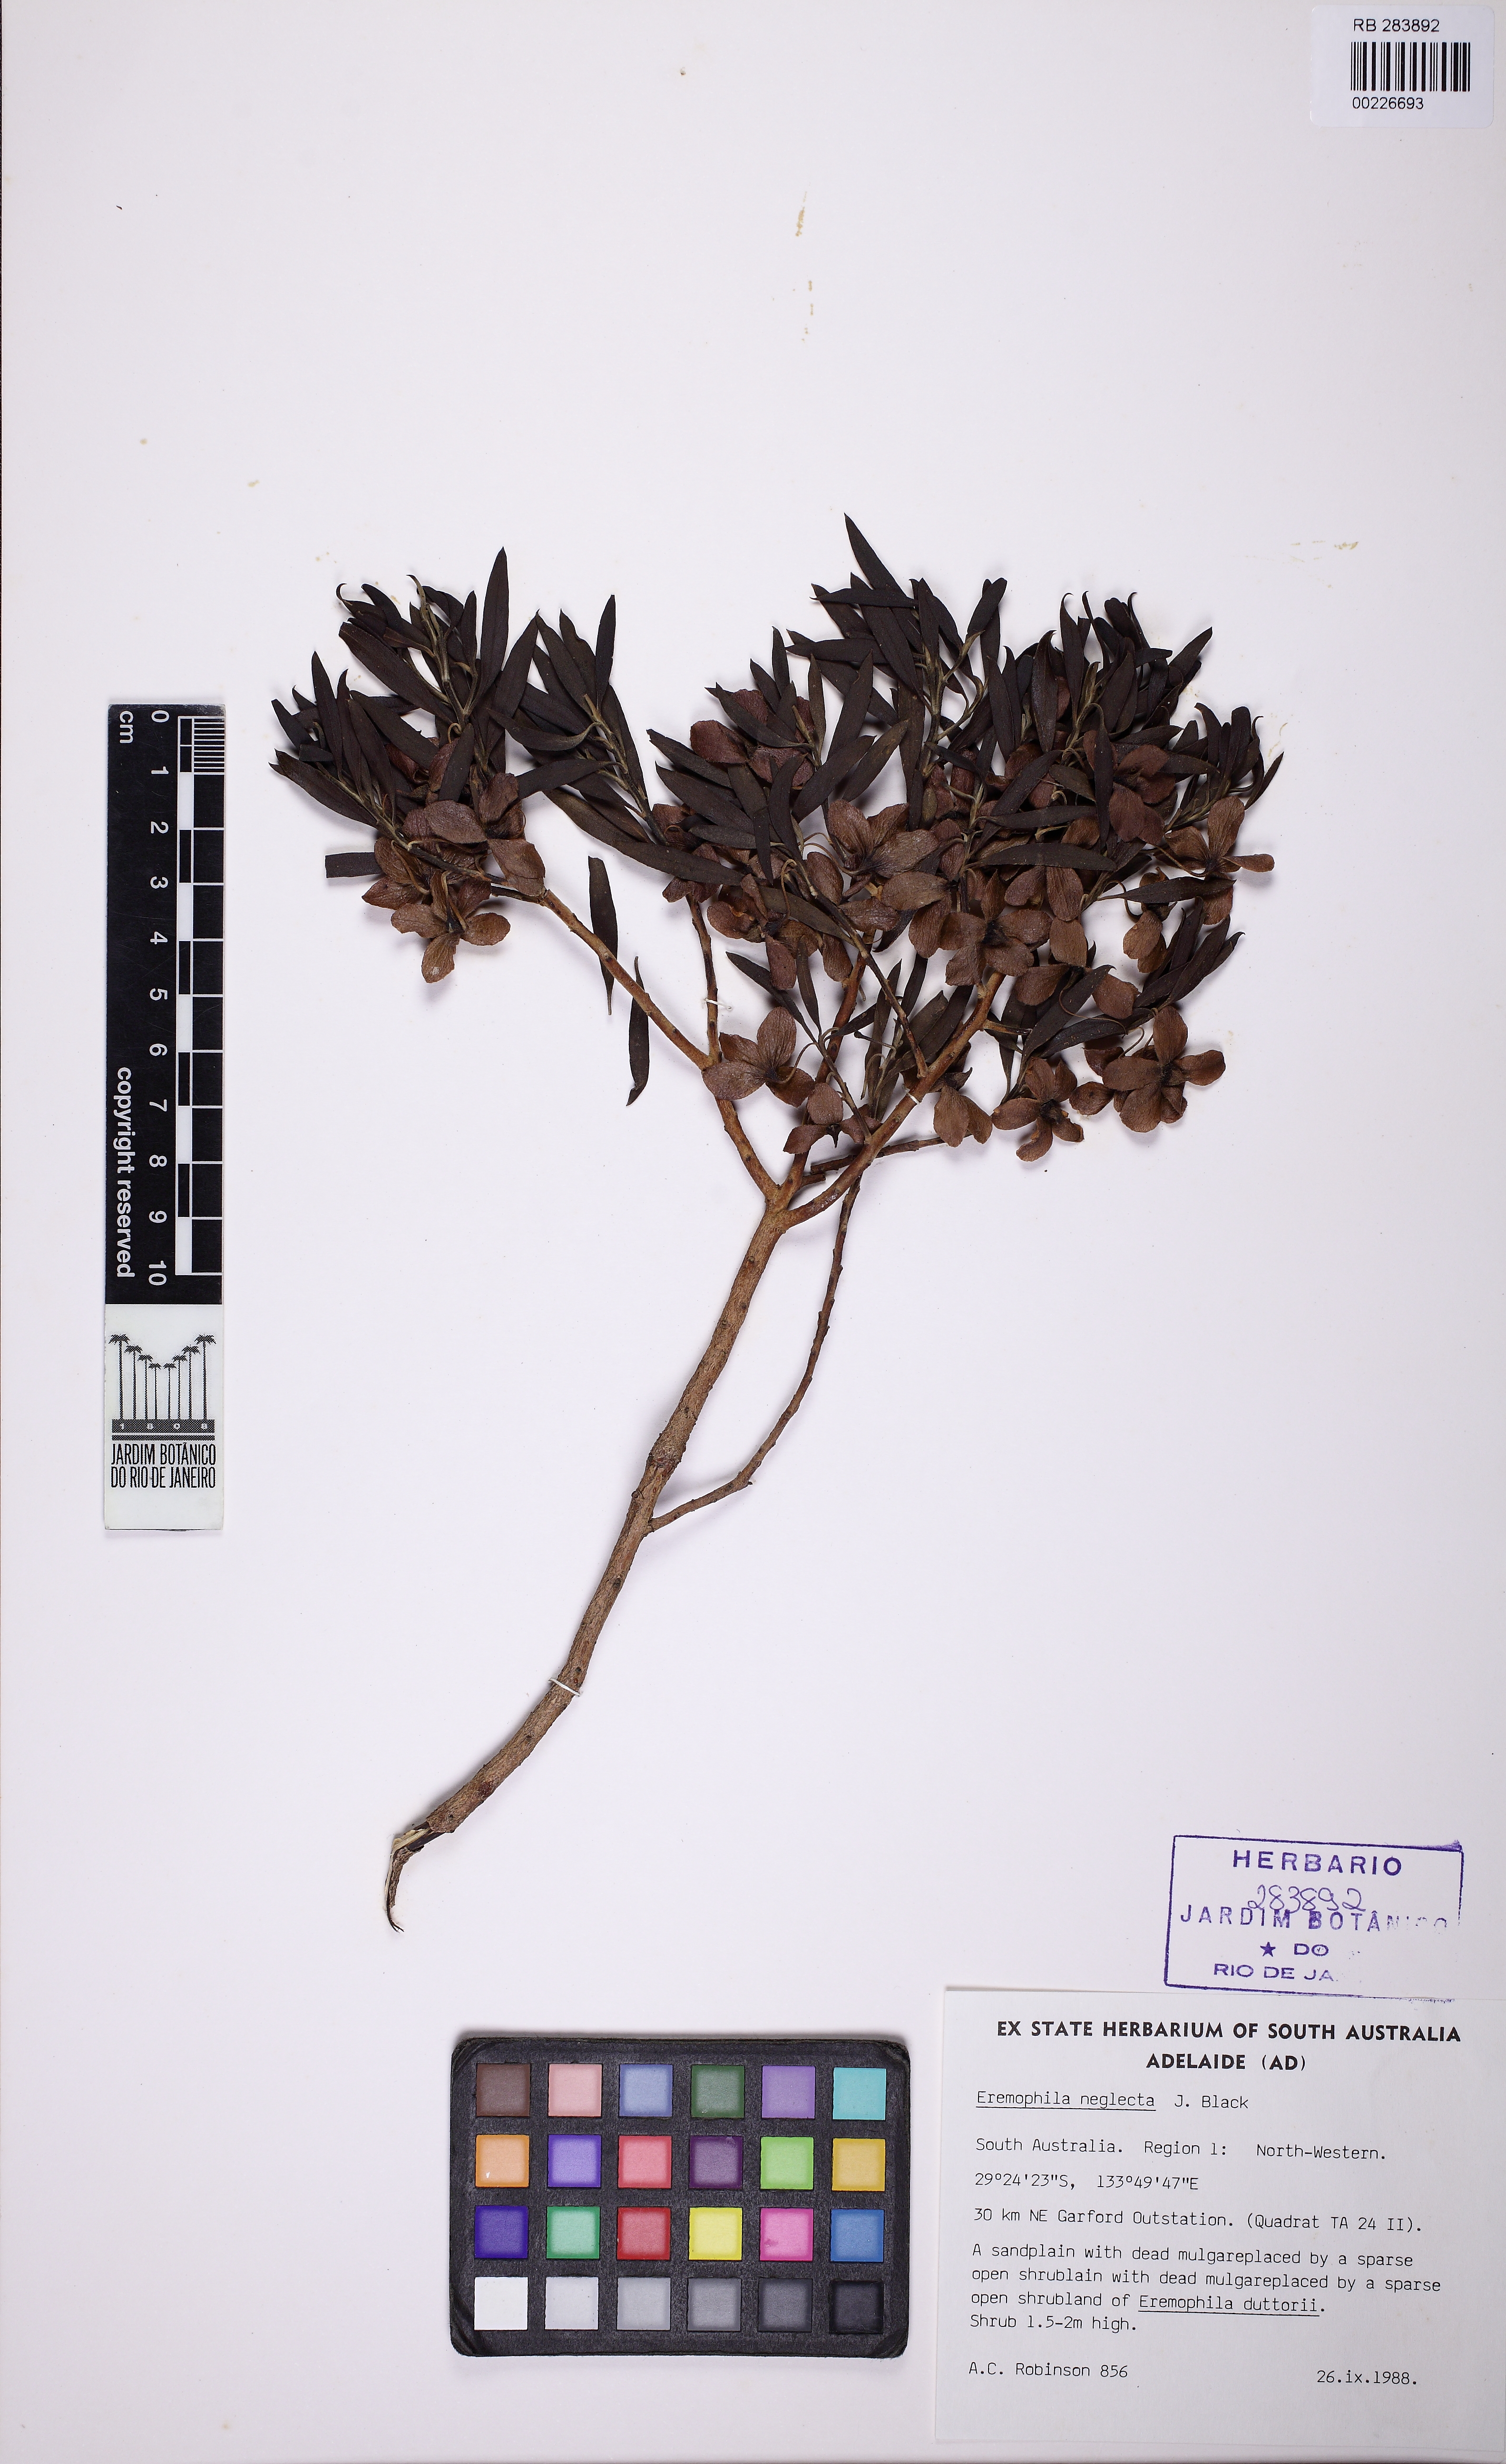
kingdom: Plantae
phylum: Tracheophyta
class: Magnoliopsida
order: Lamiales
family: Scrophulariaceae
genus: Eremophila
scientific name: Eremophila neglecta
